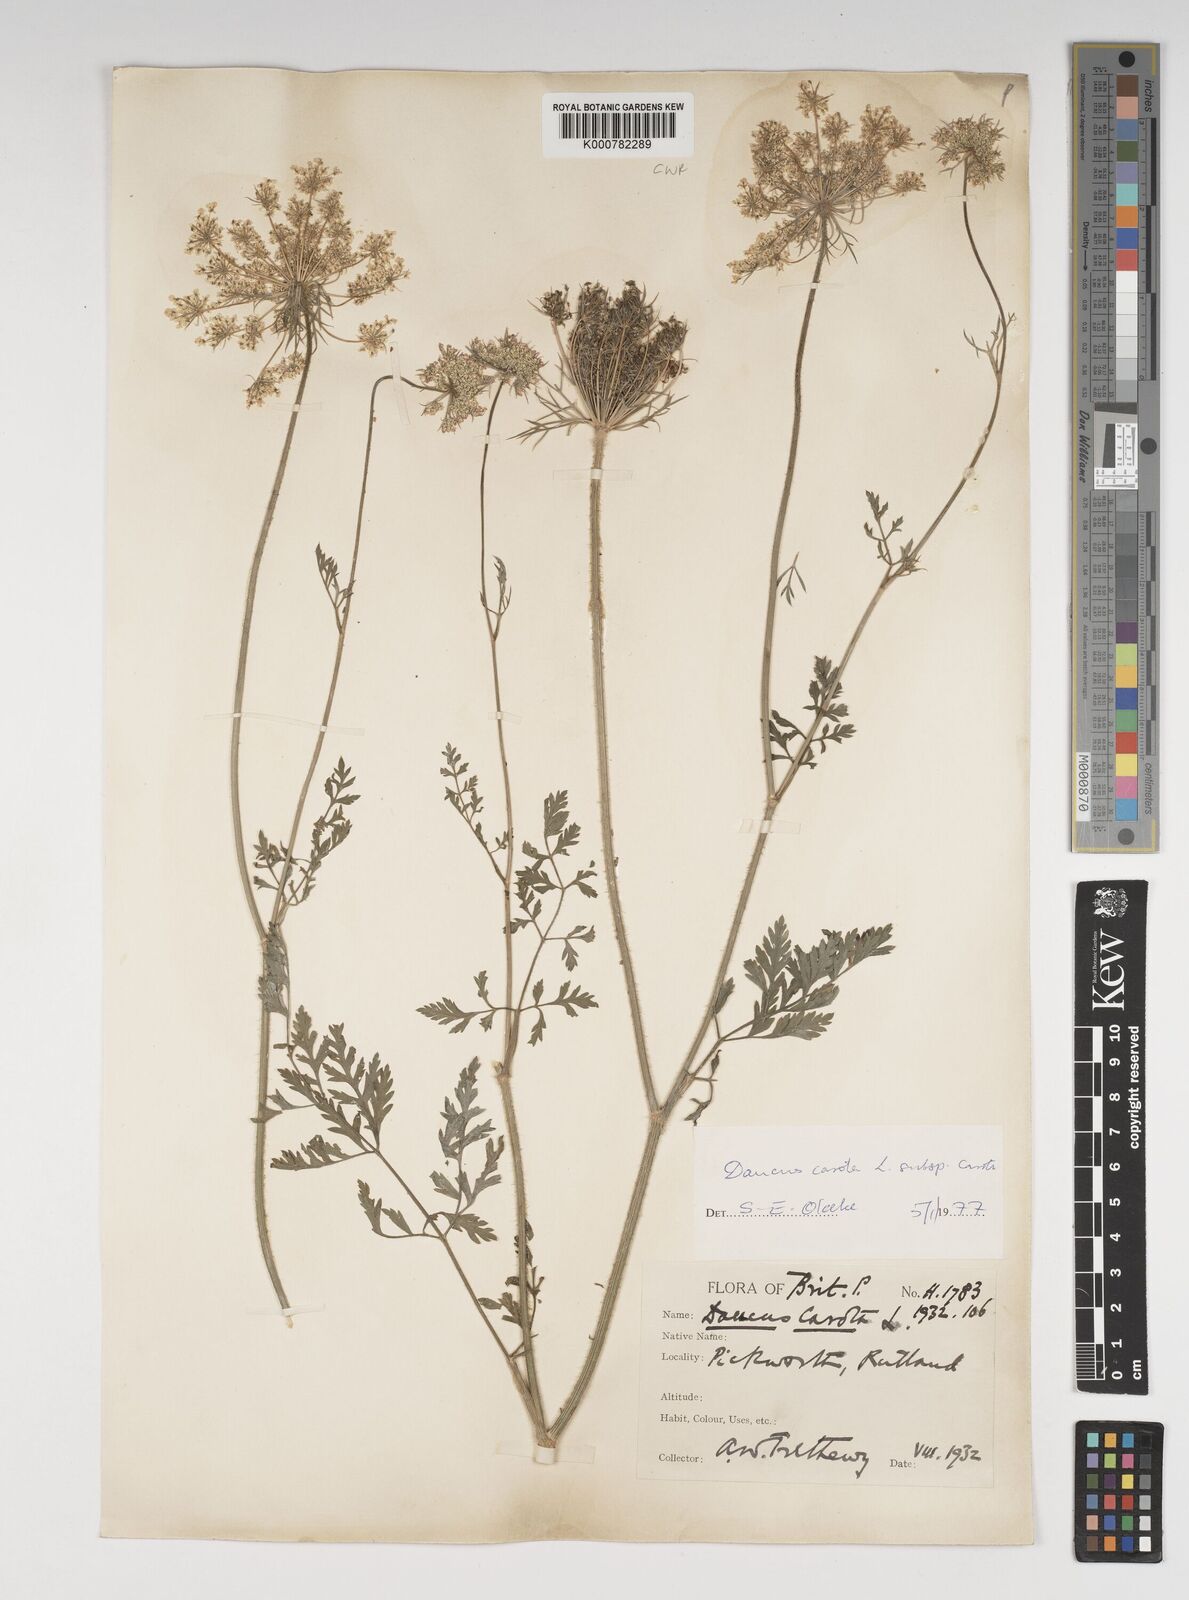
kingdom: Plantae
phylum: Tracheophyta
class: Magnoliopsida
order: Apiales
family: Apiaceae
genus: Daucus
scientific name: Daucus carota
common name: Wild carrot
